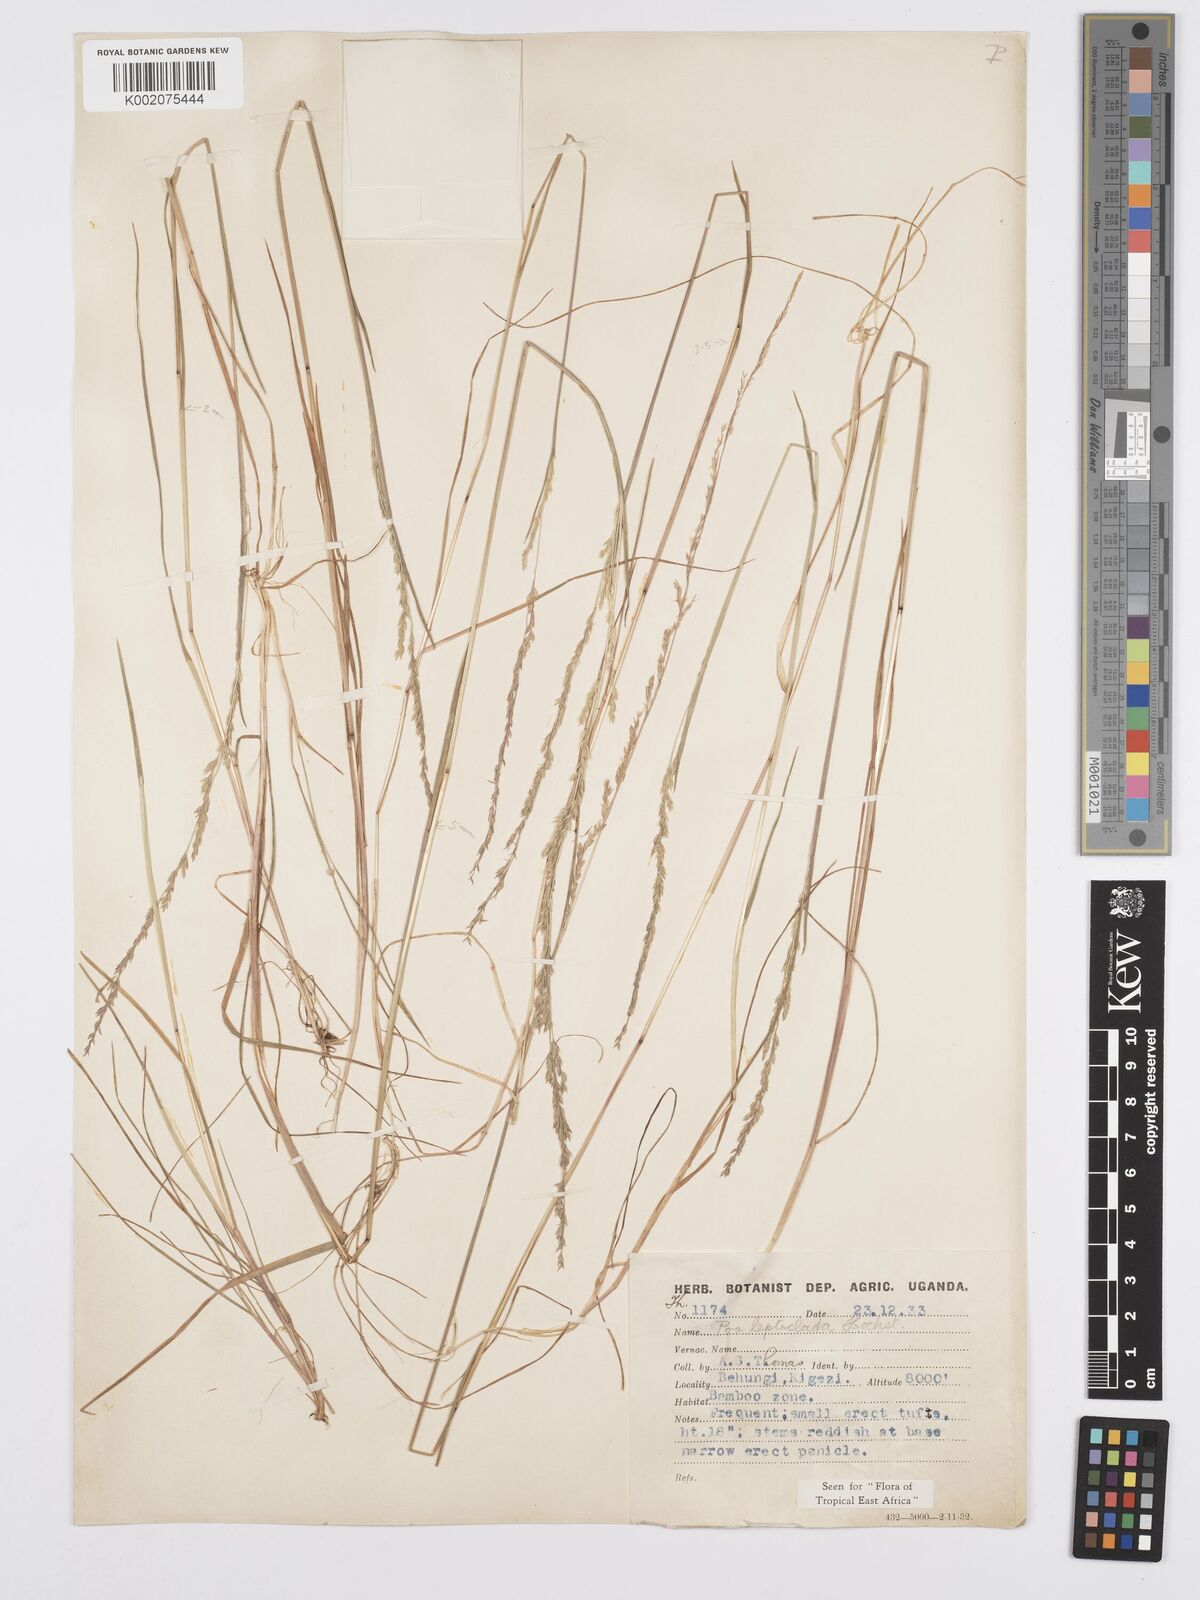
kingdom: Plantae
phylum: Tracheophyta
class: Liliopsida
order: Poales
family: Poaceae
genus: Poa
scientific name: Poa
